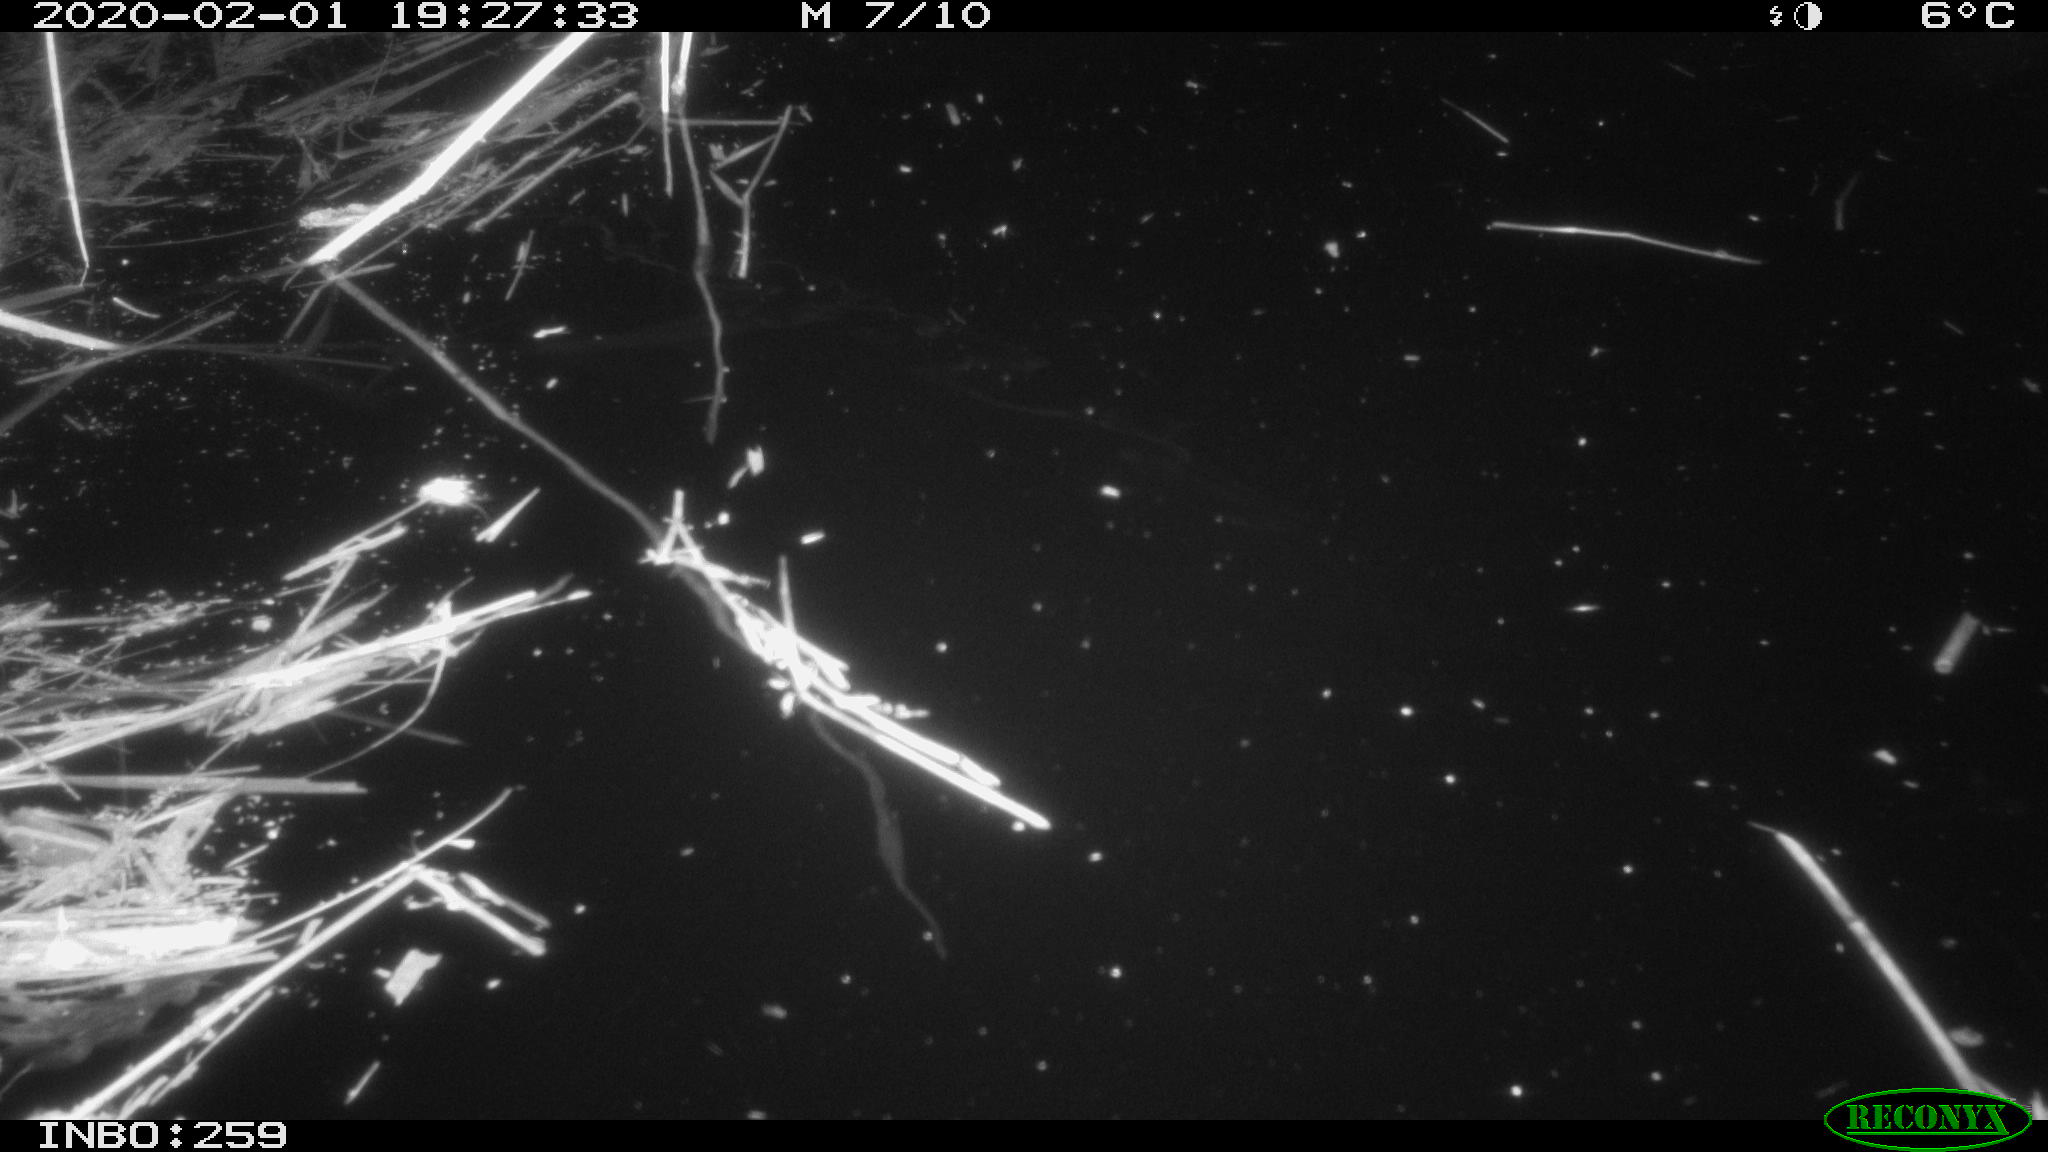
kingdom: Animalia
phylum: Chordata
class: Mammalia
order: Rodentia
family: Cricetidae
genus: Ondatra
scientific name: Ondatra zibethicus
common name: Muskrat
